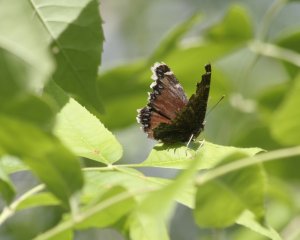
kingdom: Animalia
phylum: Arthropoda
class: Insecta
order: Lepidoptera
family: Nymphalidae
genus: Nymphalis
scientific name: Nymphalis antiopa
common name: Mourning Cloak
